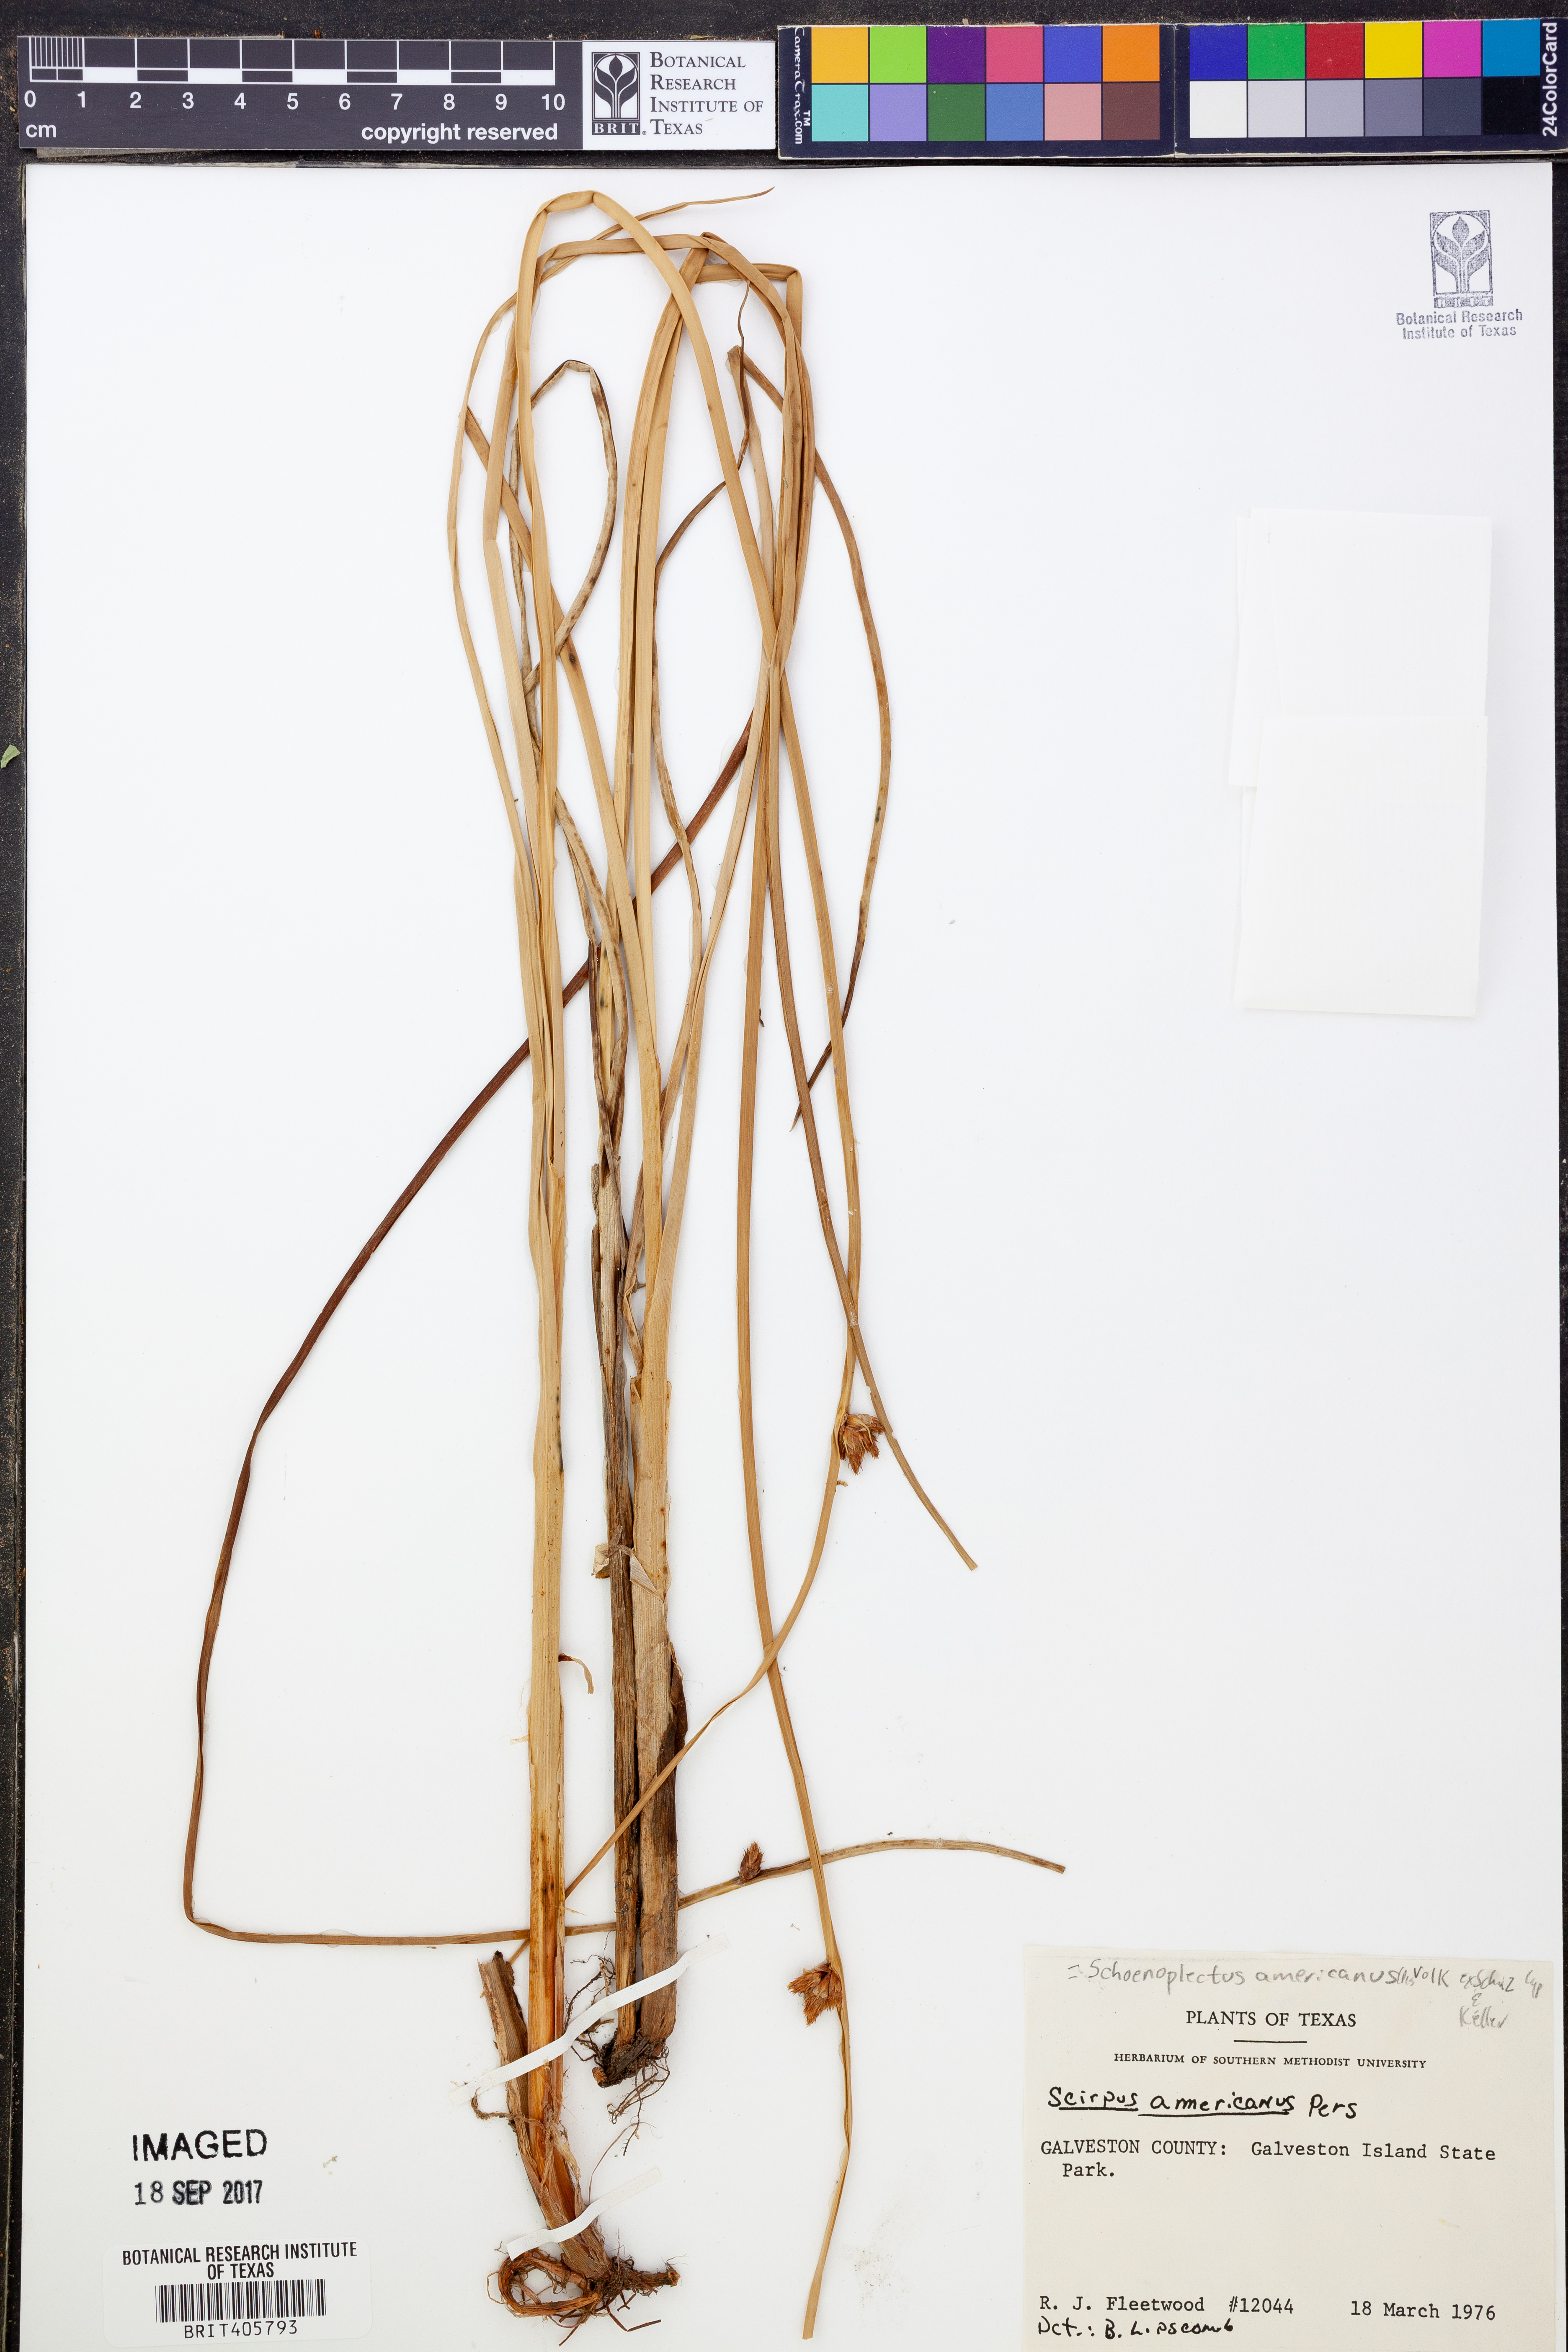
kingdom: Plantae
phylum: Tracheophyta
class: Liliopsida
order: Poales
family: Cyperaceae
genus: Schoenoplectus
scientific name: Schoenoplectus americanus
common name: American three-square bulrush
